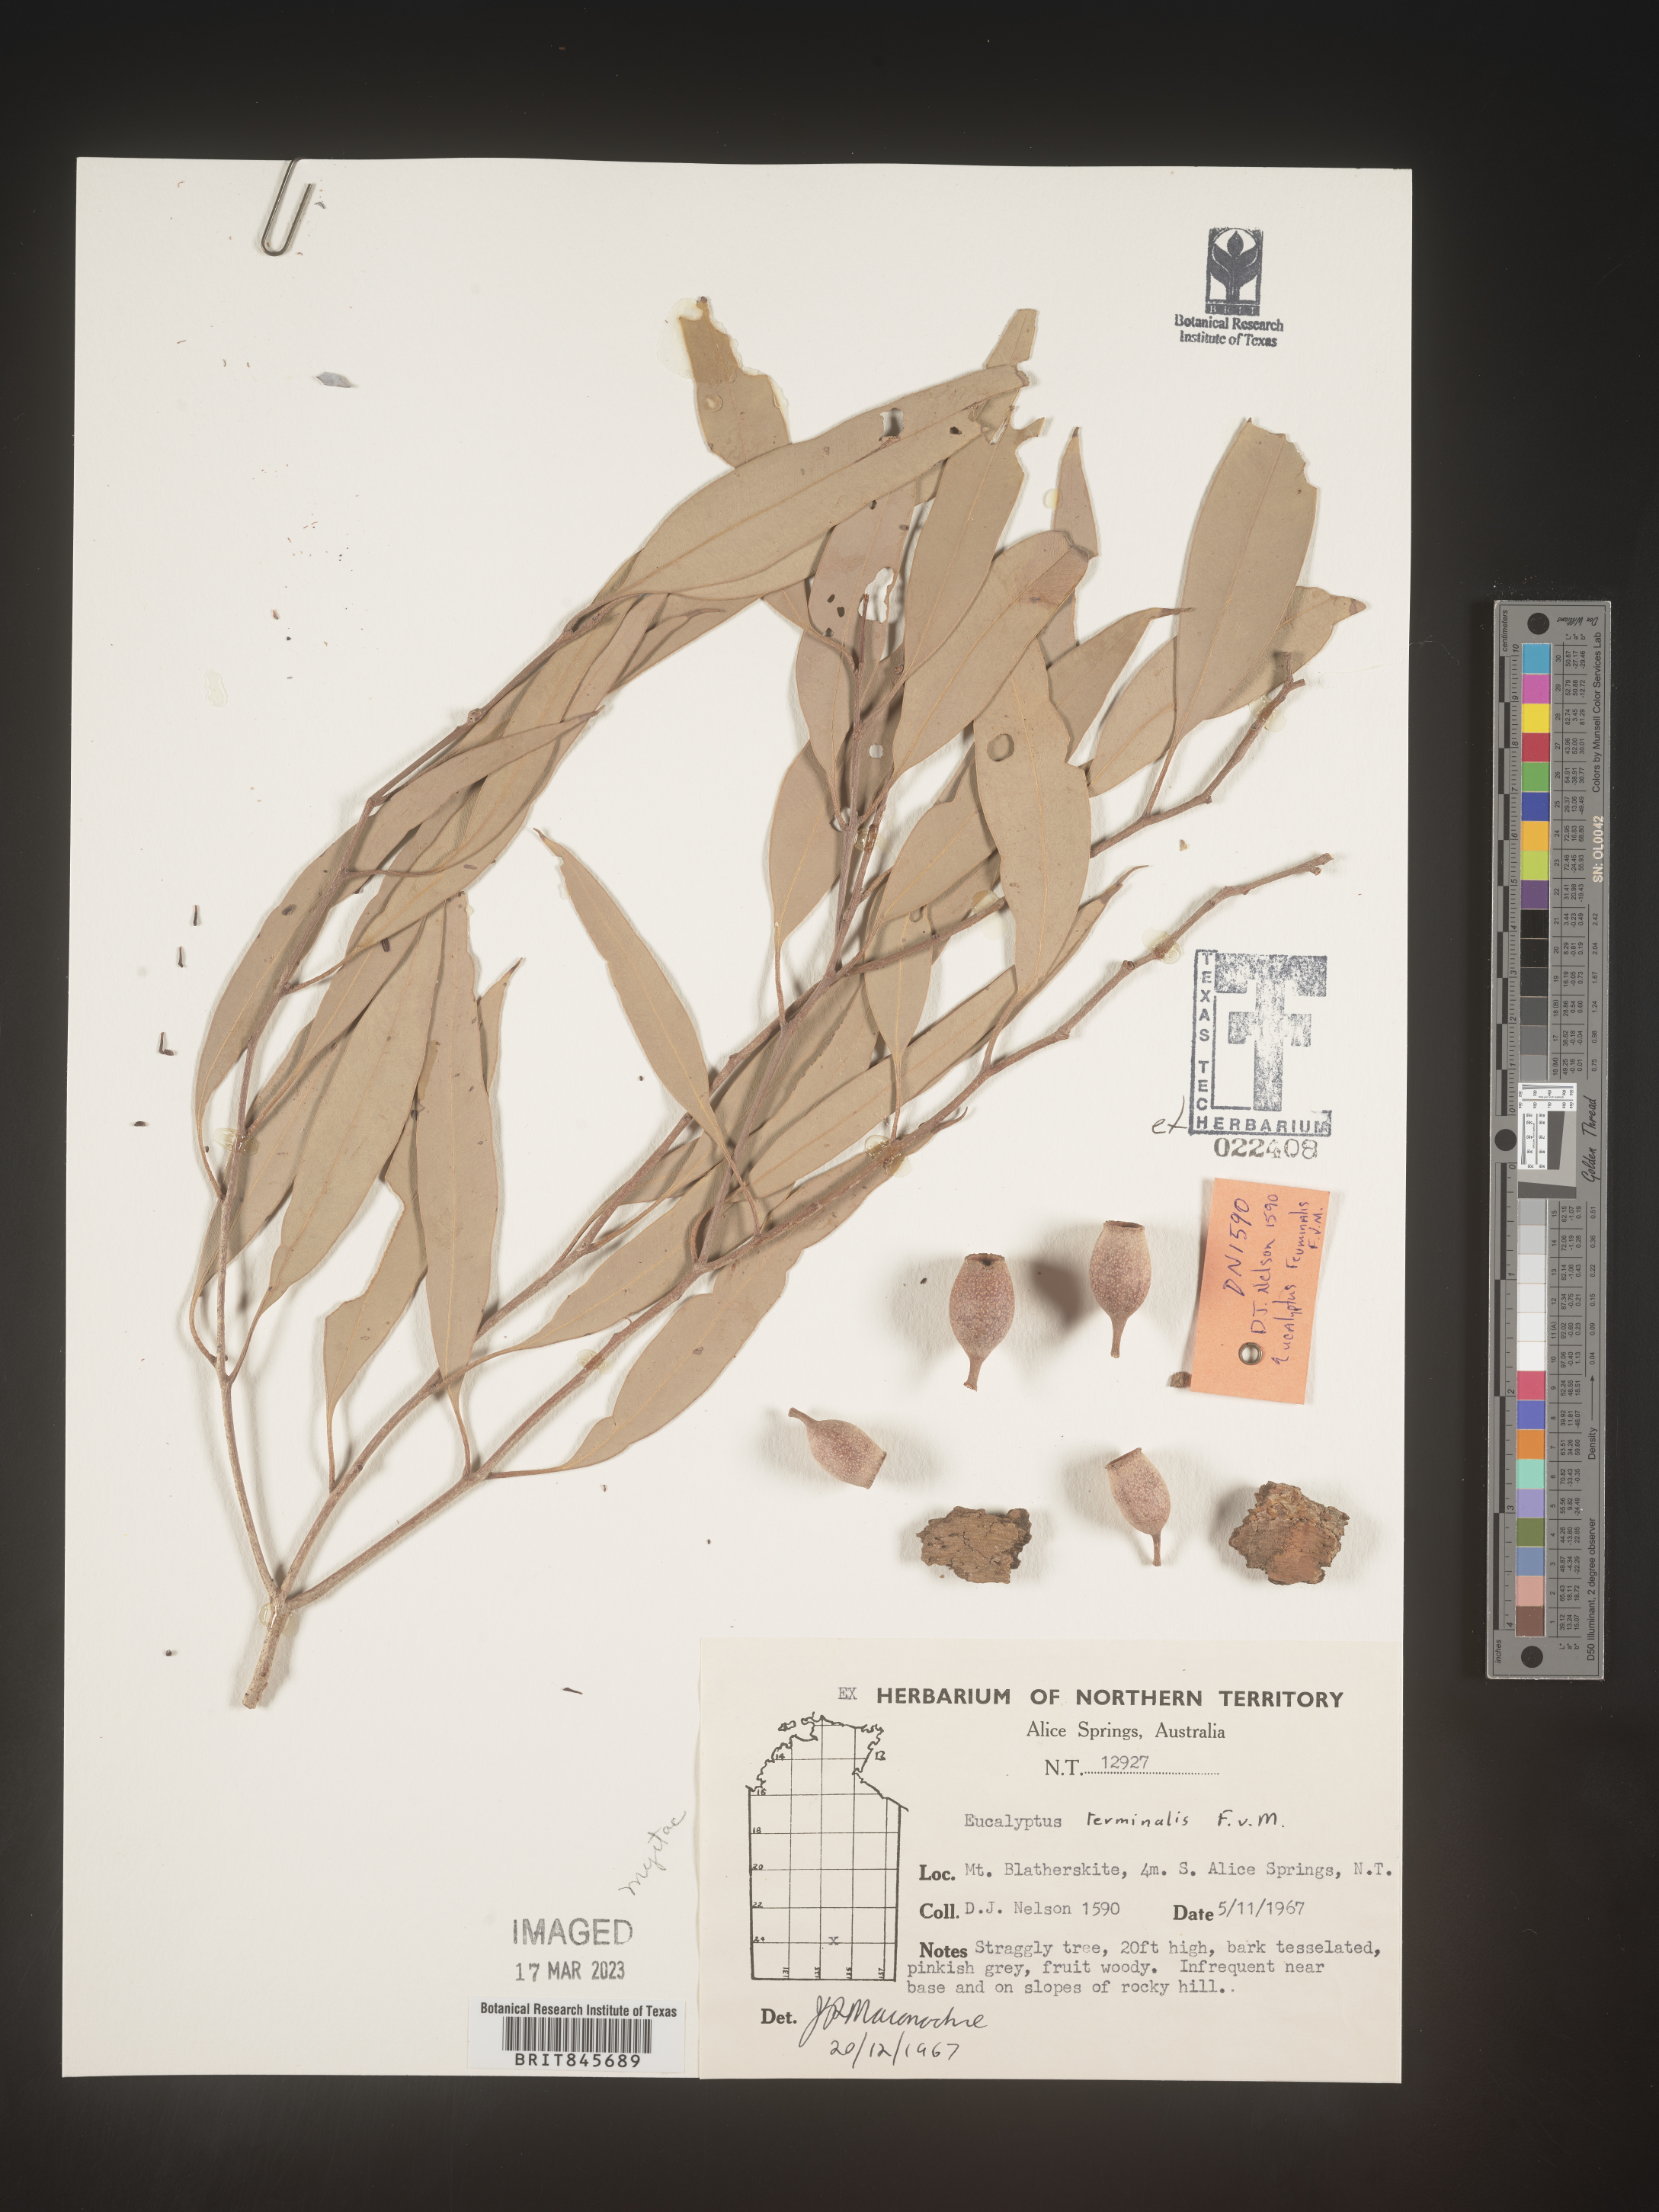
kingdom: Plantae
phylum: Tracheophyta
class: Magnoliopsida
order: Myrtales
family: Myrtaceae
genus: Eucalyptus
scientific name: Eucalyptus
